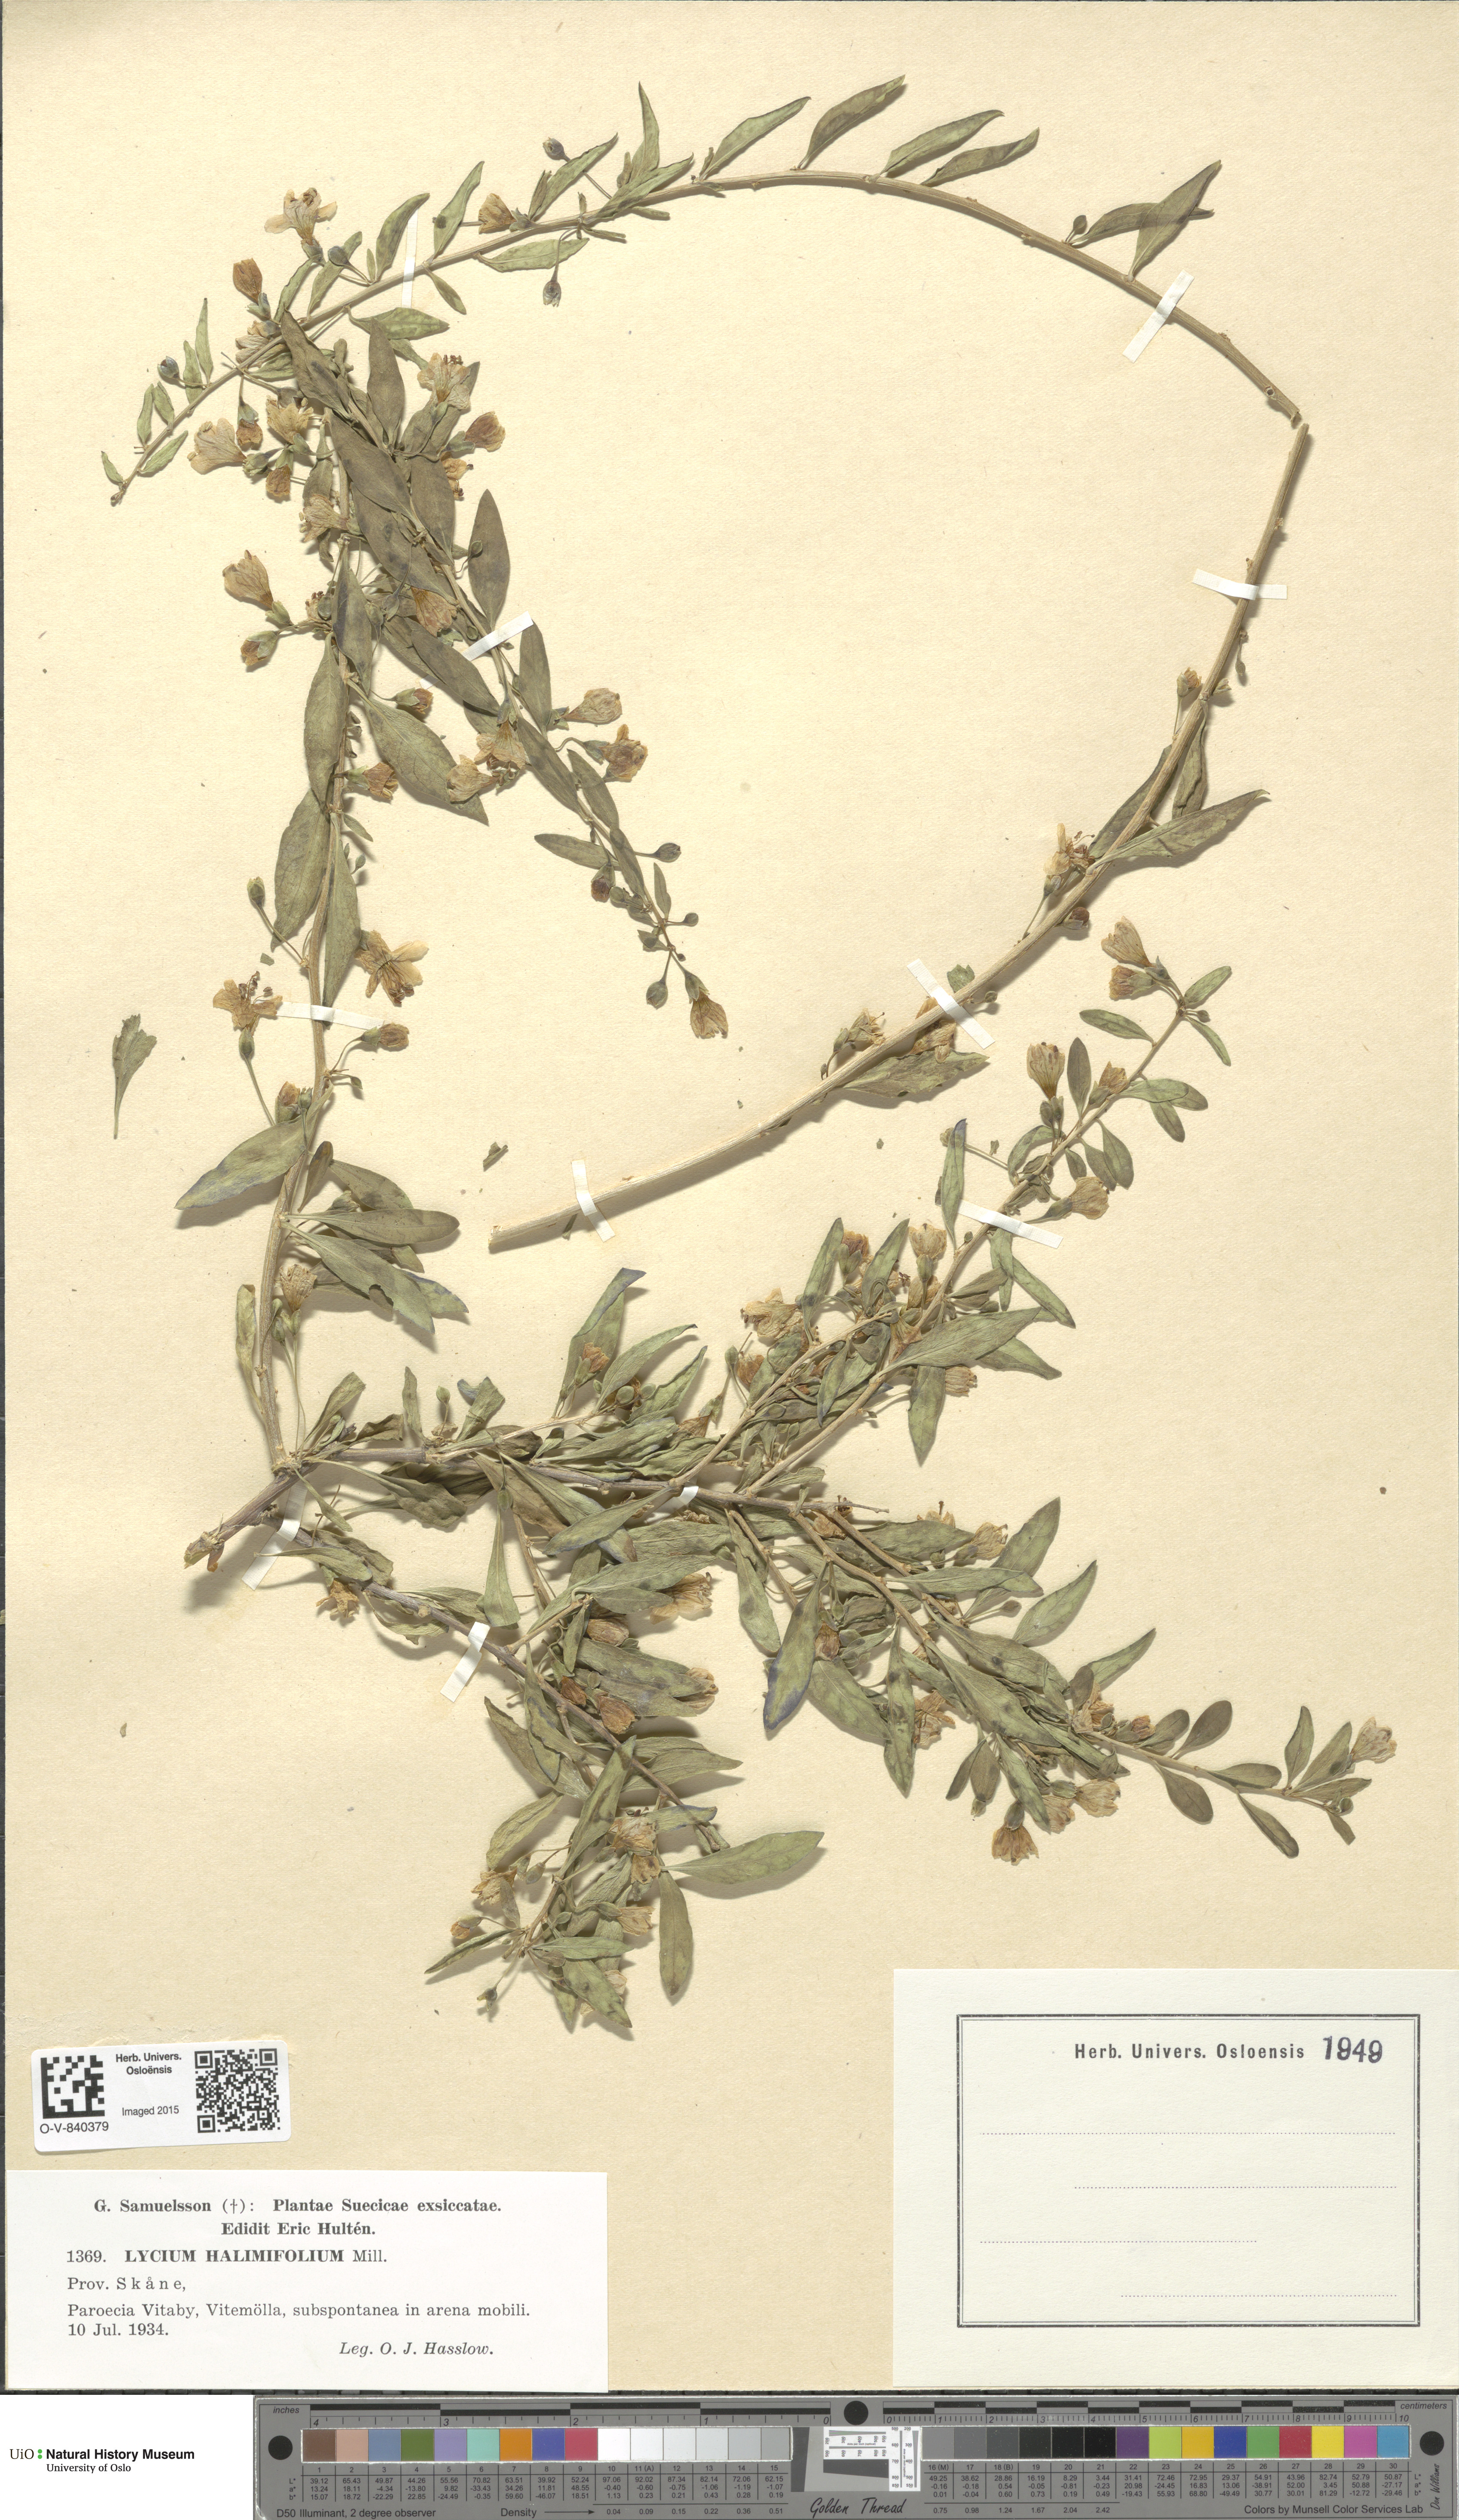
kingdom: Plantae
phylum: Tracheophyta
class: Magnoliopsida
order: Solanales
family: Solanaceae
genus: Lycium
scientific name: Lycium barbarum
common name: Duke of argyll's teaplant
